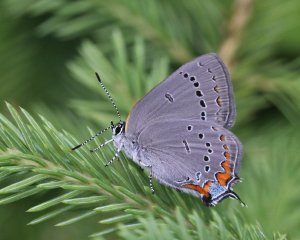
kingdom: Animalia
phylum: Arthropoda
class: Insecta
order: Lepidoptera
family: Lycaenidae
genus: Strymon
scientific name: Strymon acadica
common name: Acadian Hairstreak
